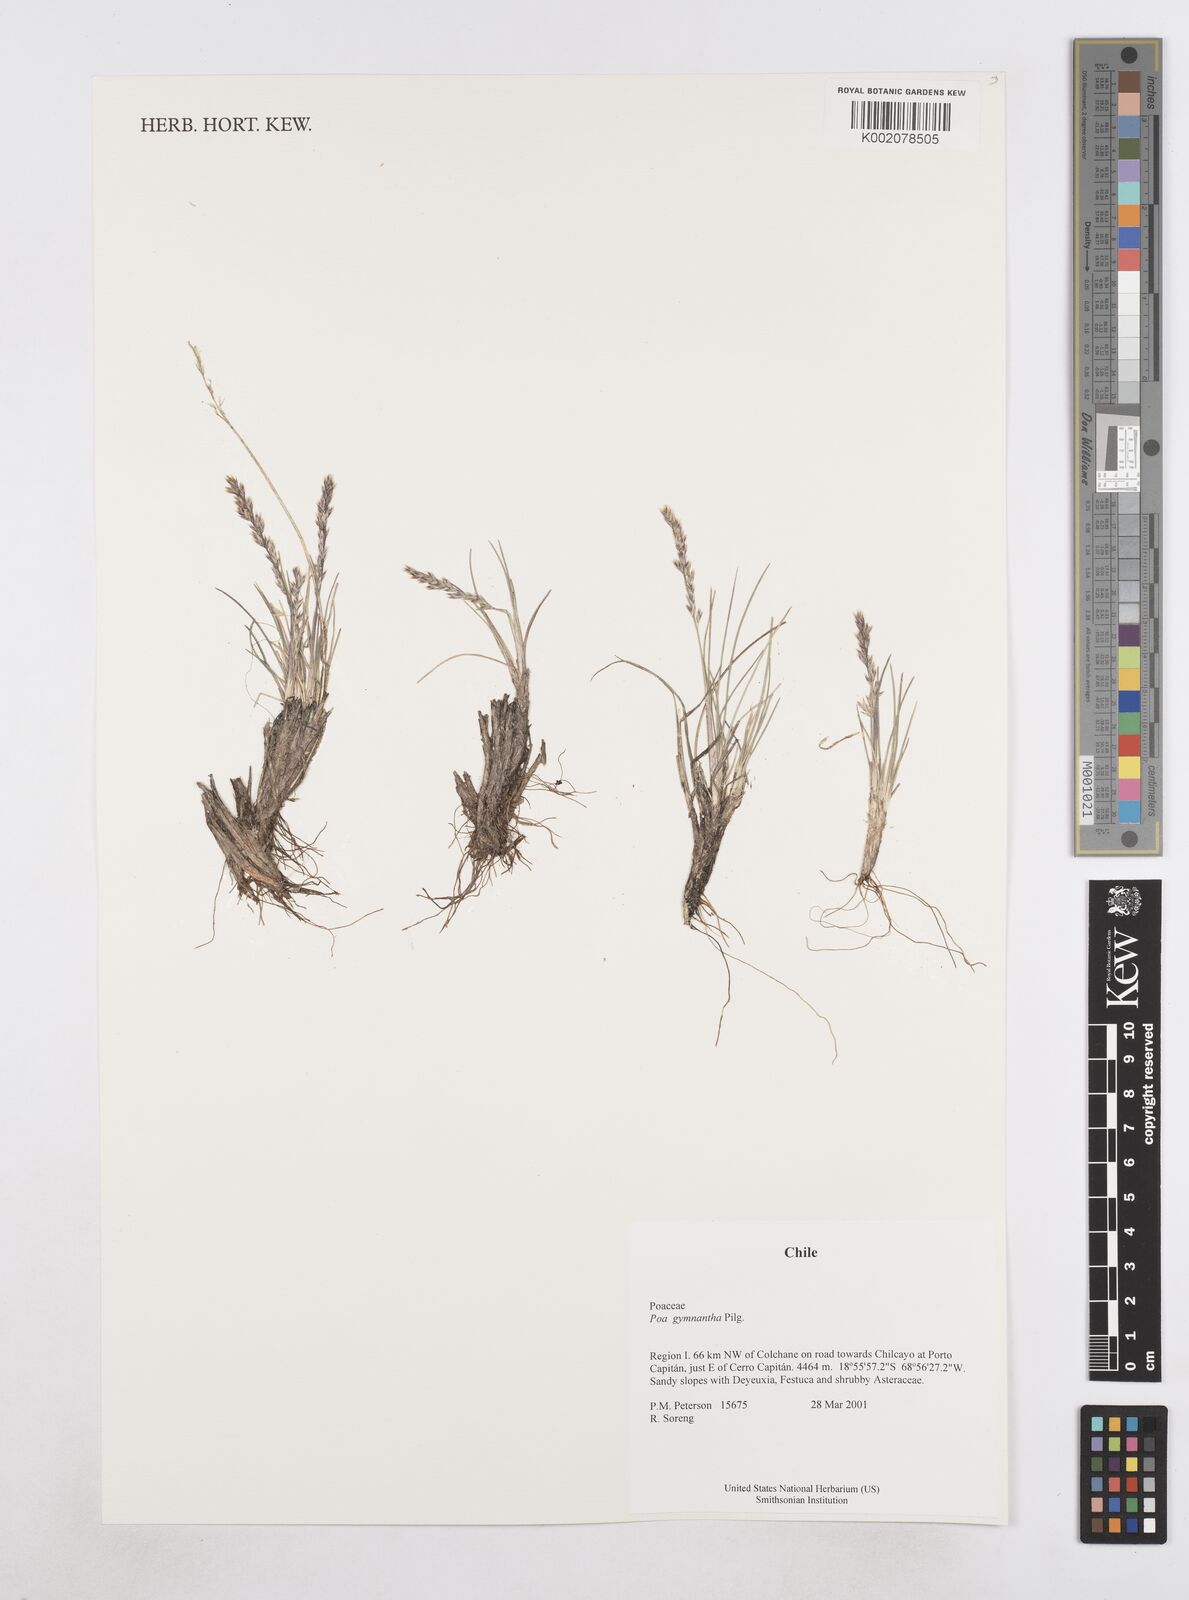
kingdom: Plantae
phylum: Tracheophyta
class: Liliopsida
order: Poales
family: Poaceae
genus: Poa
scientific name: Poa gymnantha
